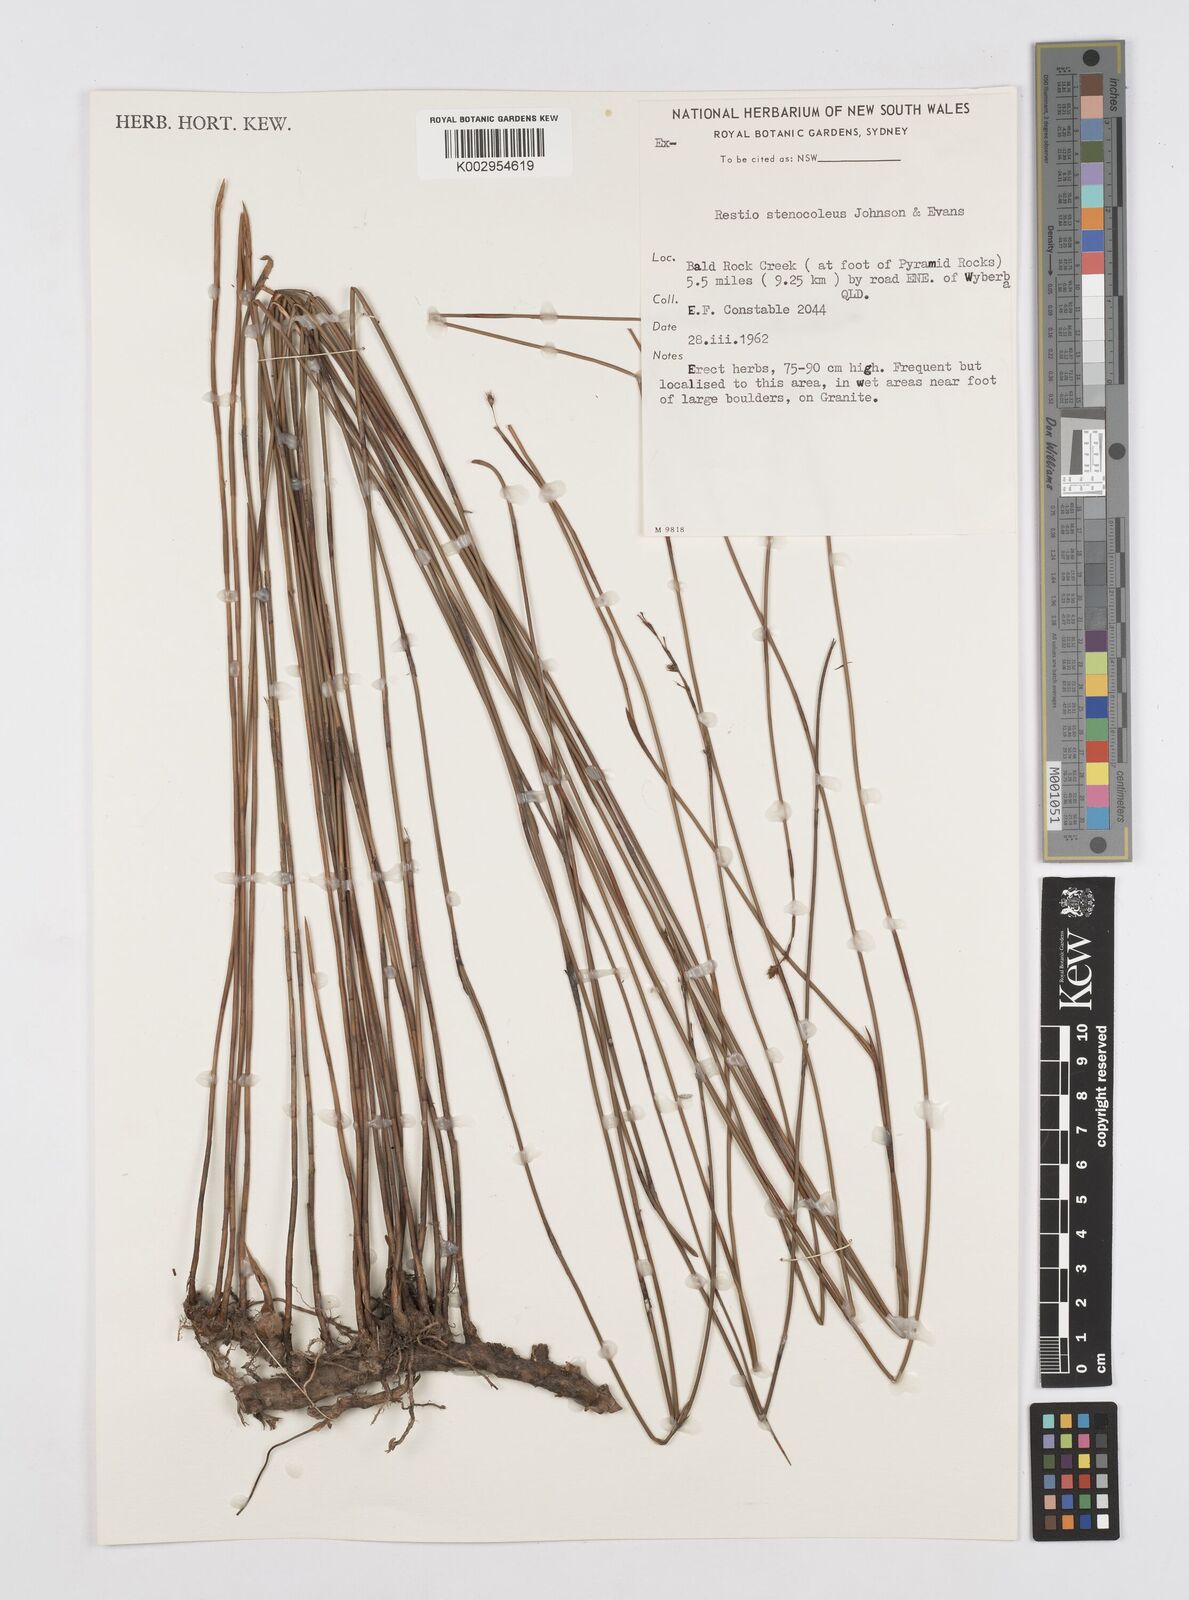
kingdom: Plantae
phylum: Tracheophyta
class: Liliopsida
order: Poales
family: Restionaceae
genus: Baloskion
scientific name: Baloskion stenocoleum
